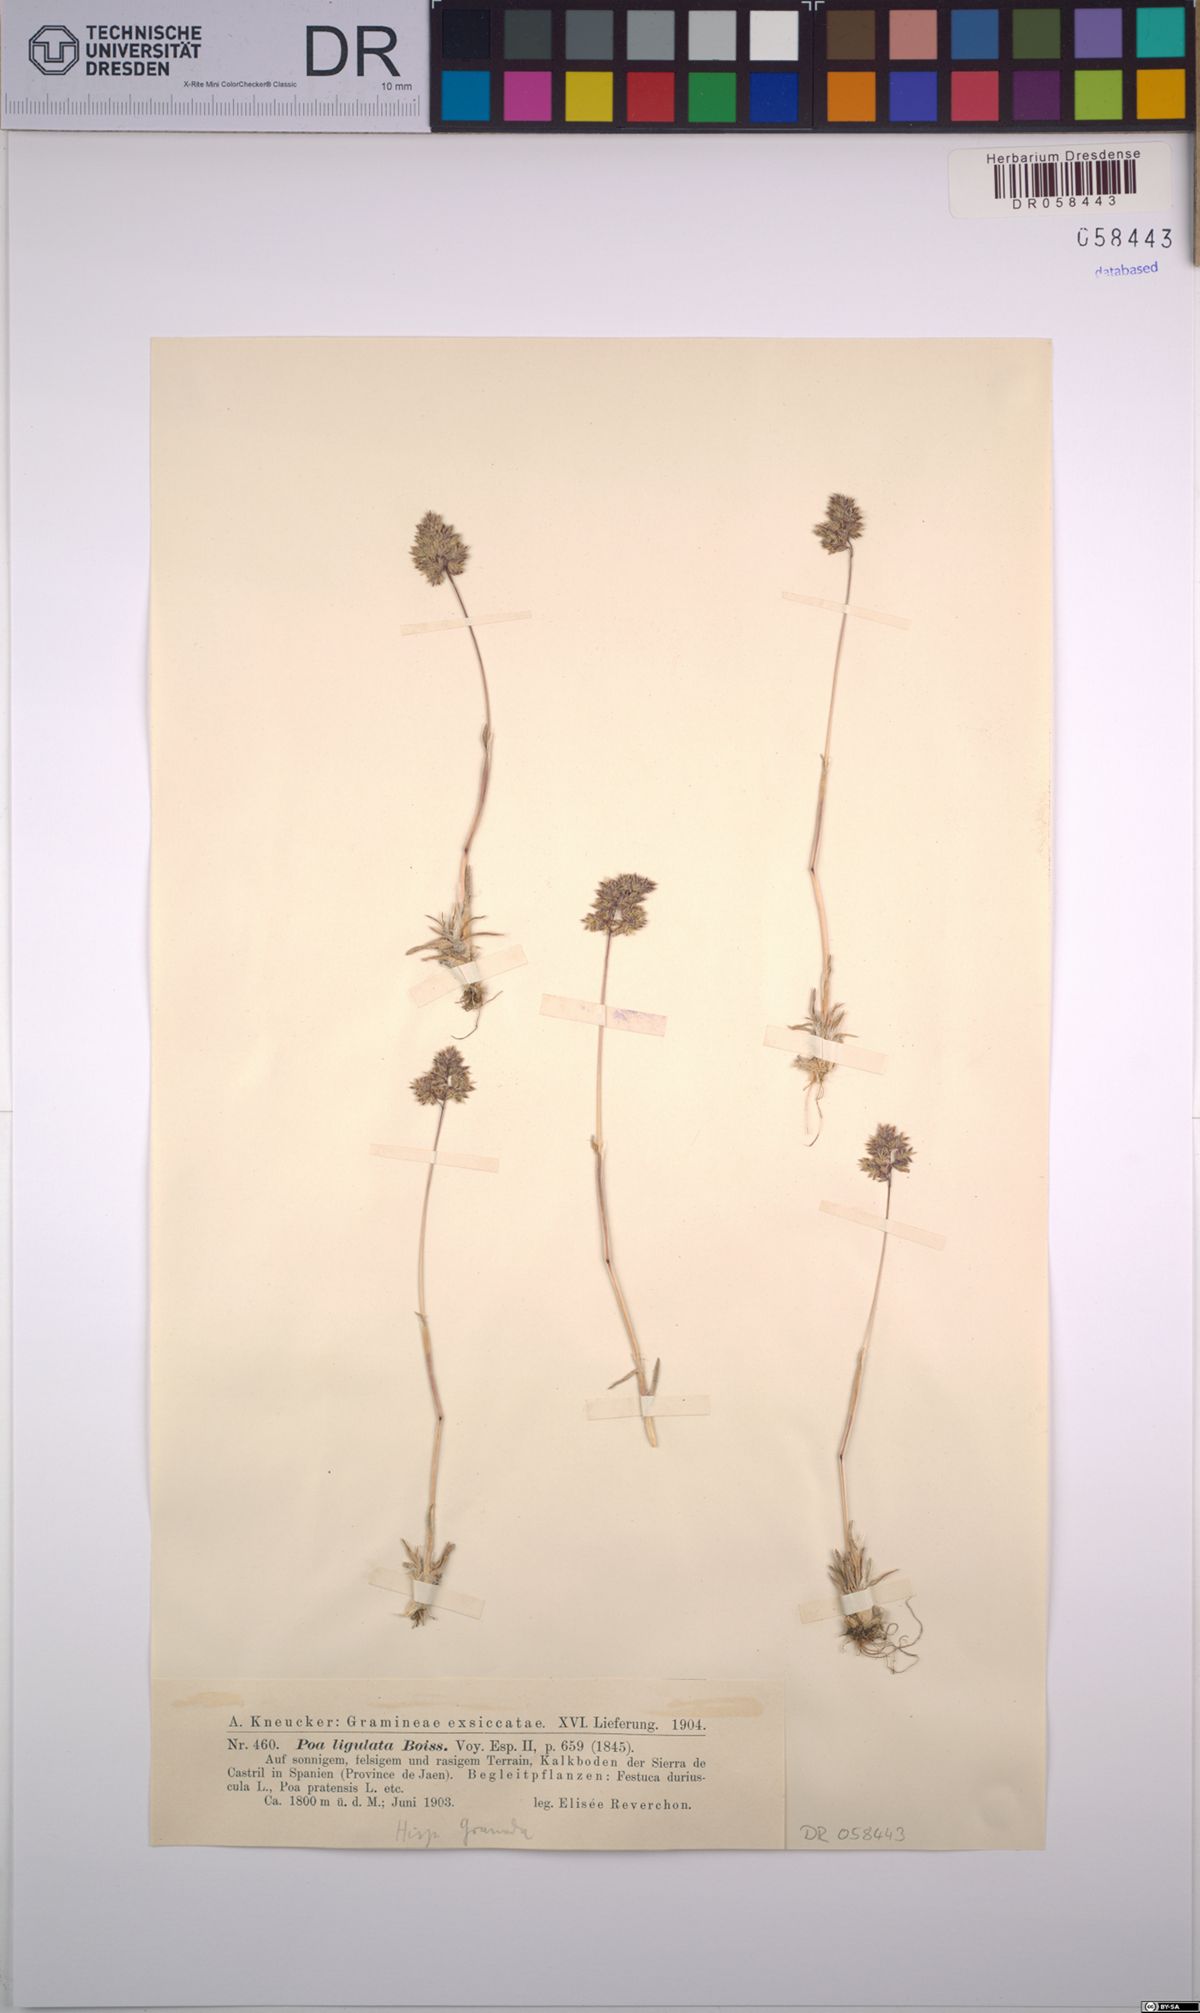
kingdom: Plantae
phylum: Tracheophyta
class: Liliopsida
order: Poales
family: Poaceae
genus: Poa
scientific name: Poa ligulata
